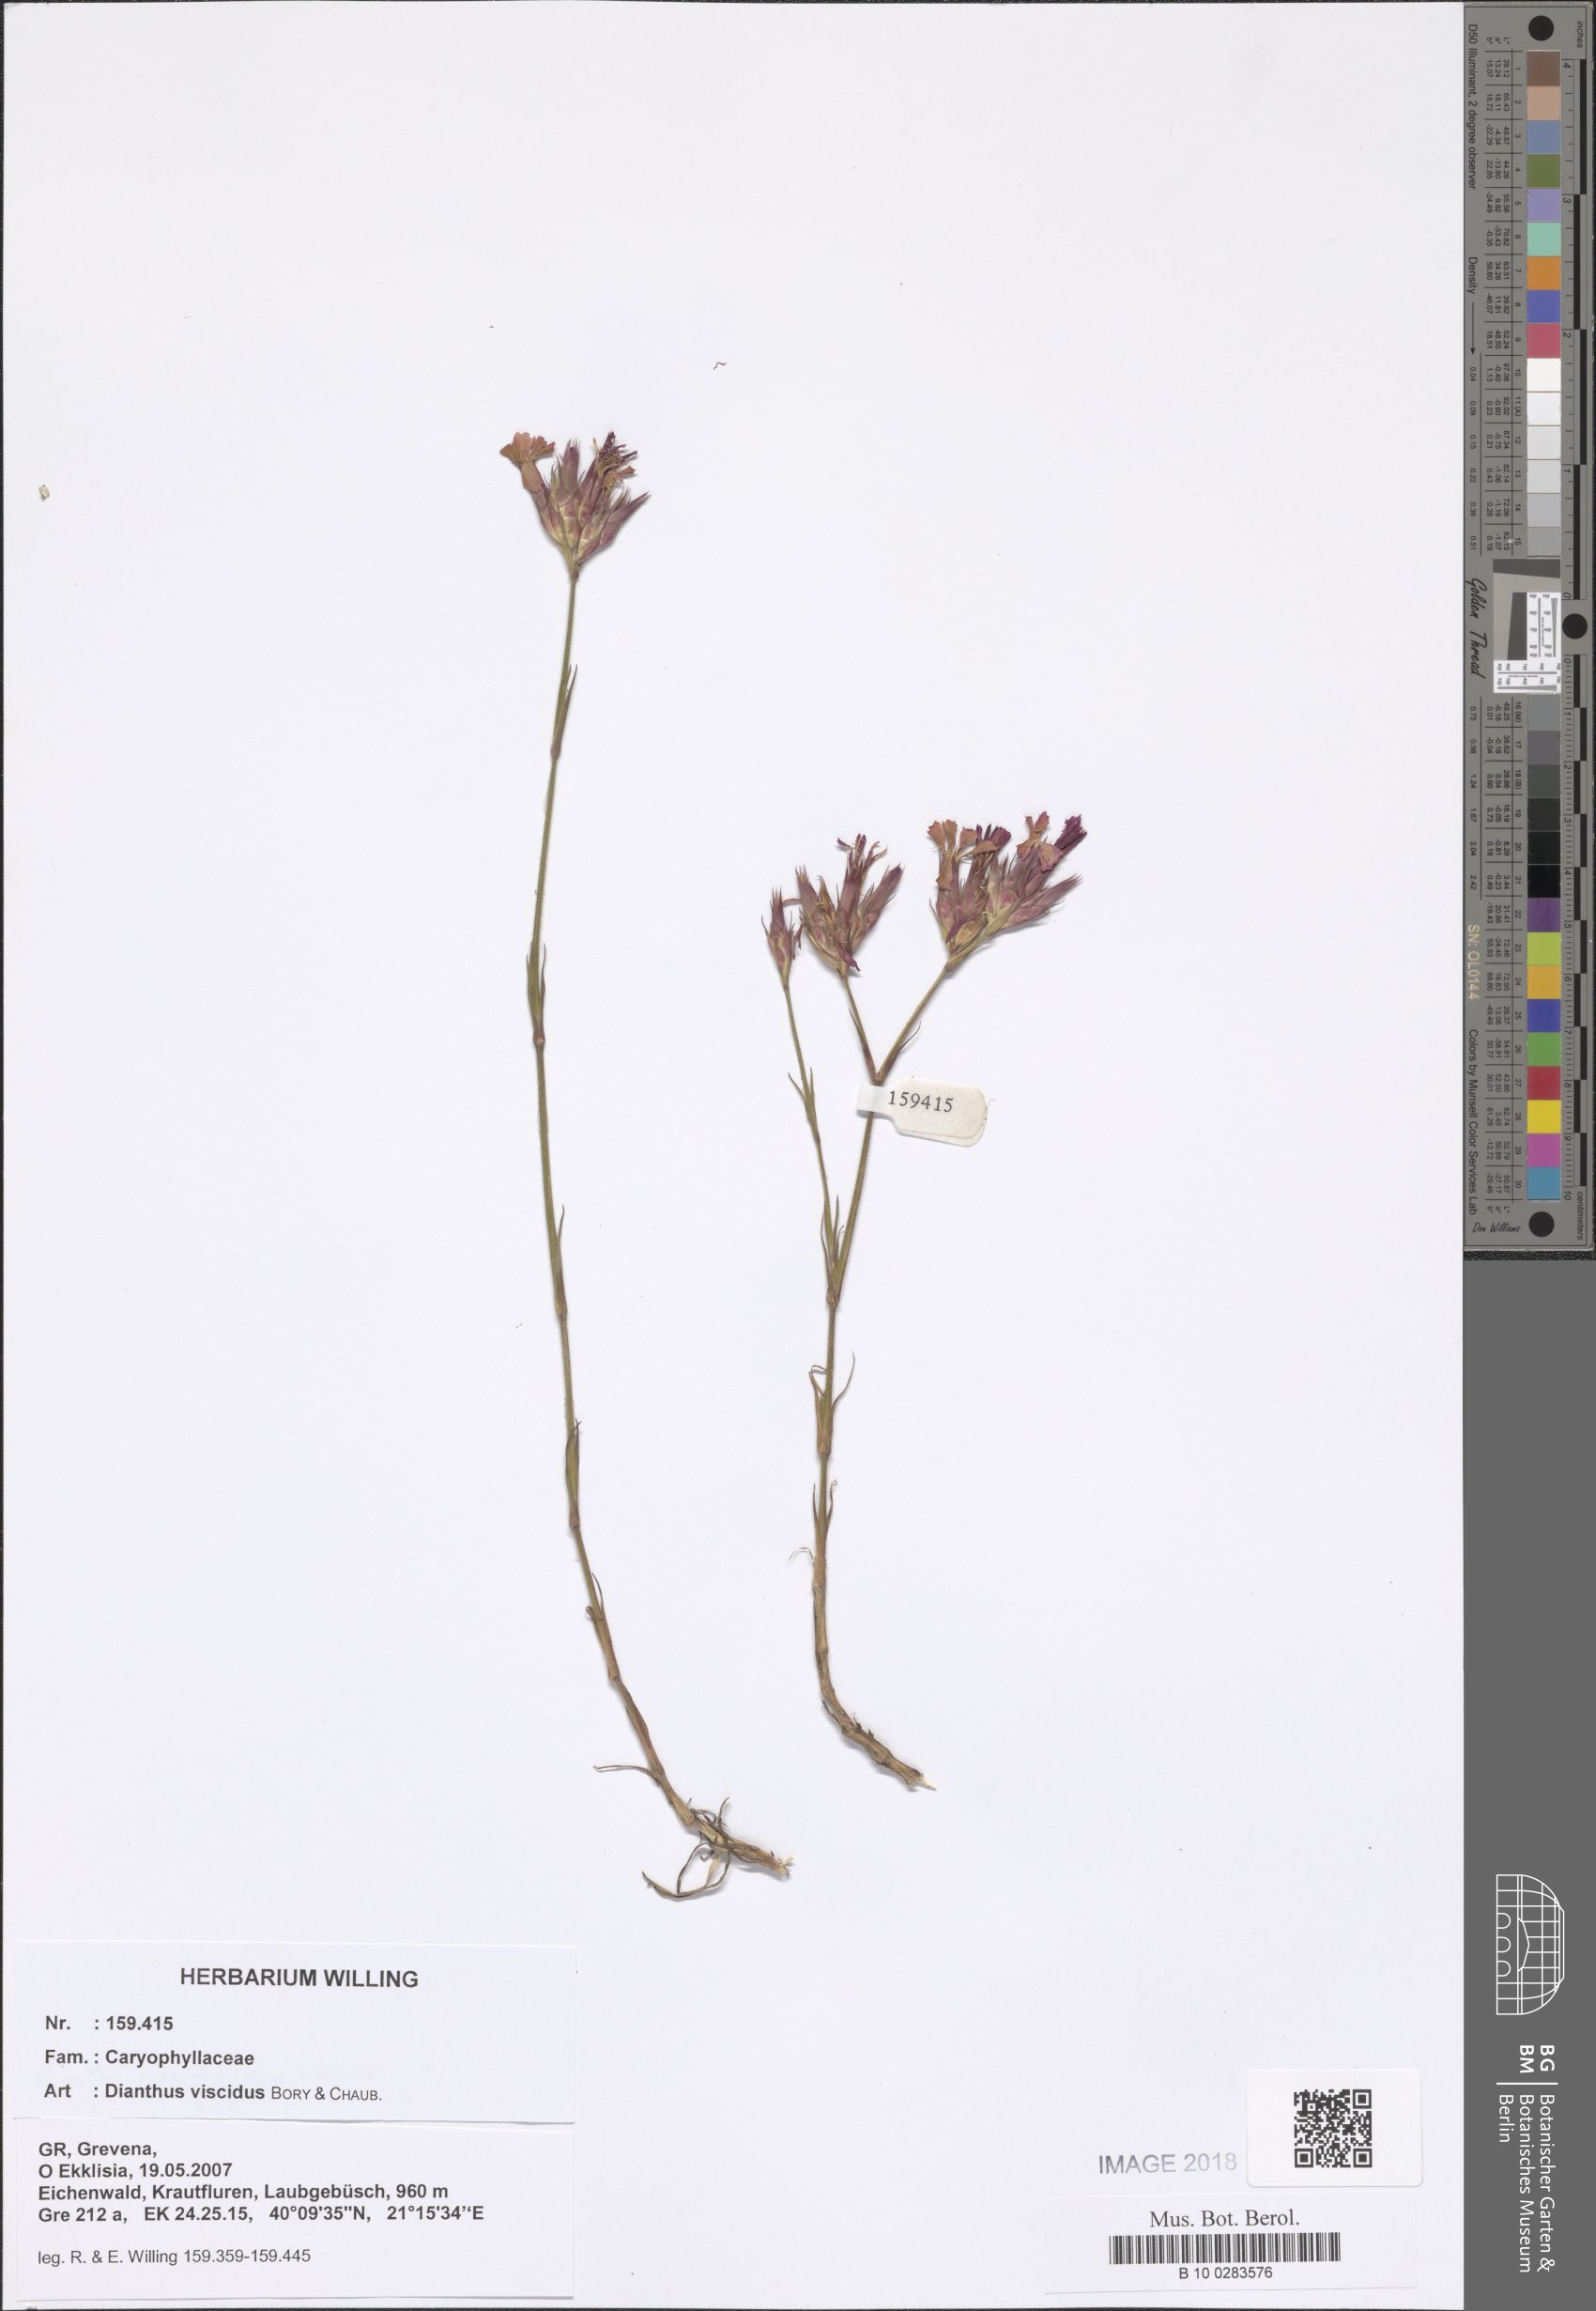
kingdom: Plantae
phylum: Tracheophyta
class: Magnoliopsida
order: Caryophyllales
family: Caryophyllaceae
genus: Dianthus
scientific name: Dianthus viscidus
